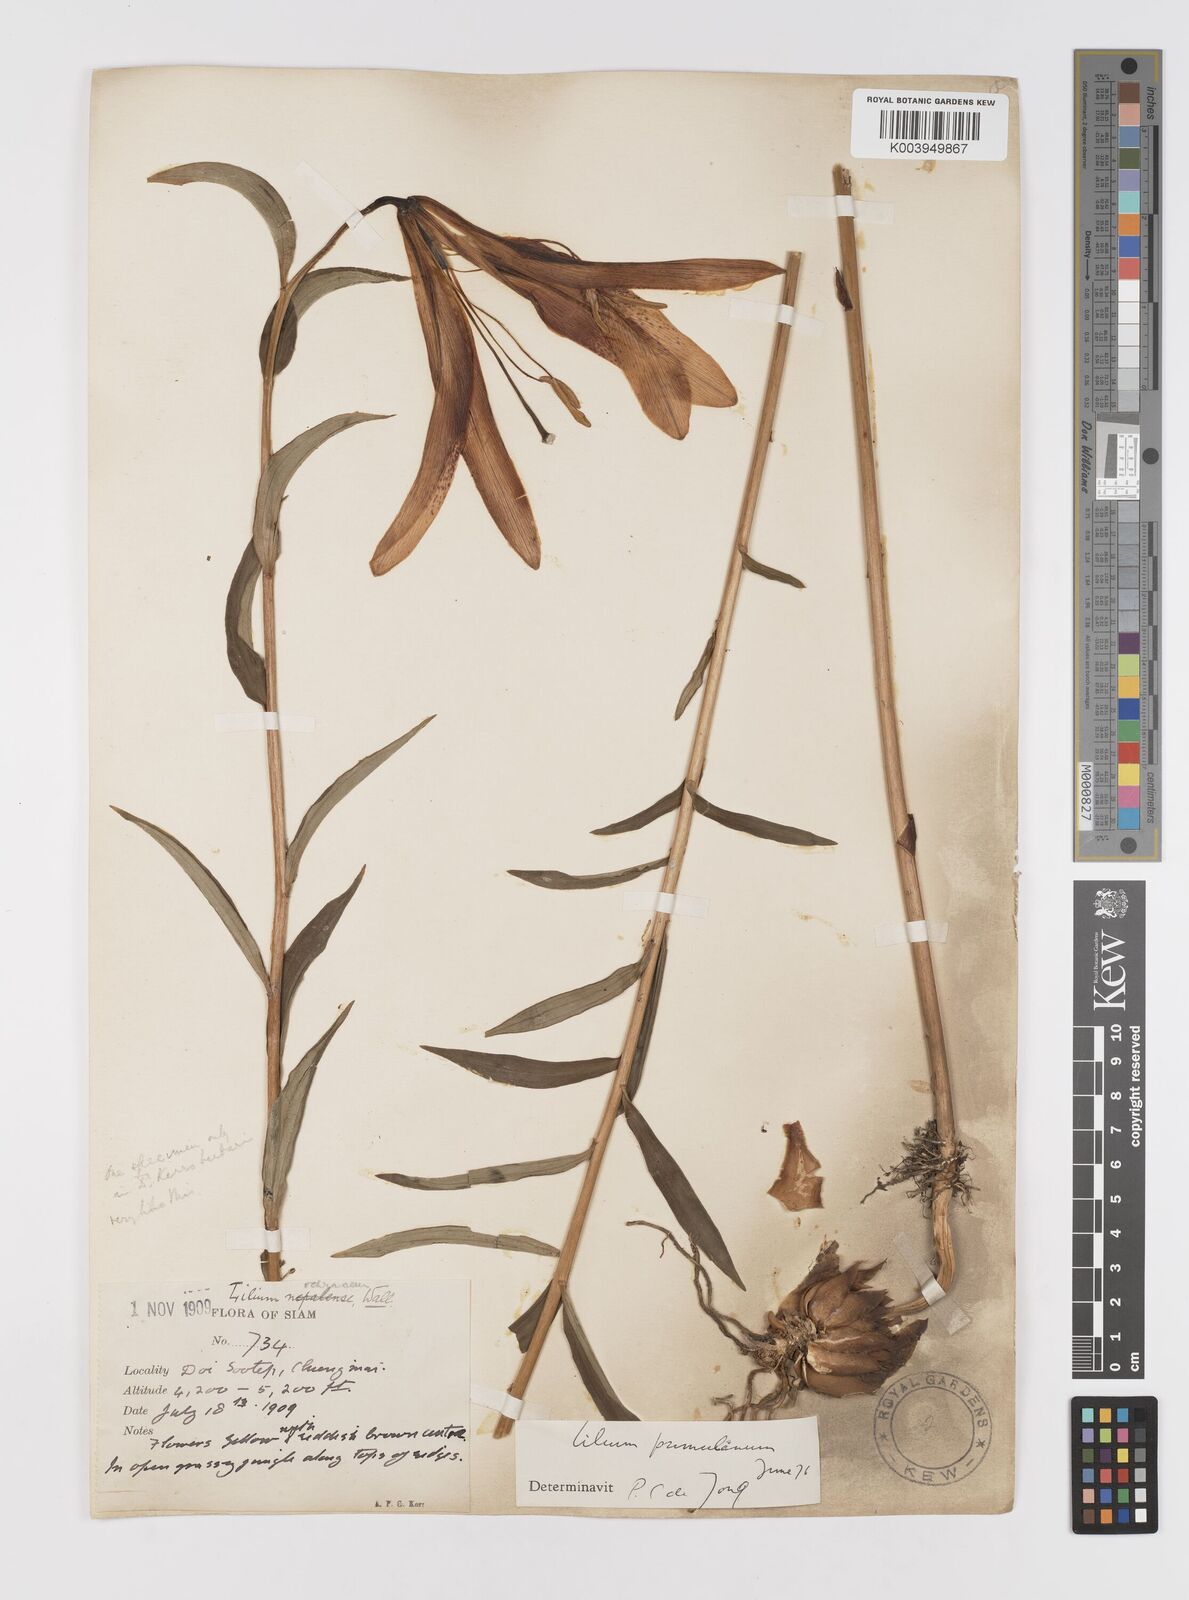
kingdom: Plantae
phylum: Tracheophyta
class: Liliopsida
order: Liliales
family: Liliaceae
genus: Lilium
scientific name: Lilium primulinum
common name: Ochre lily
